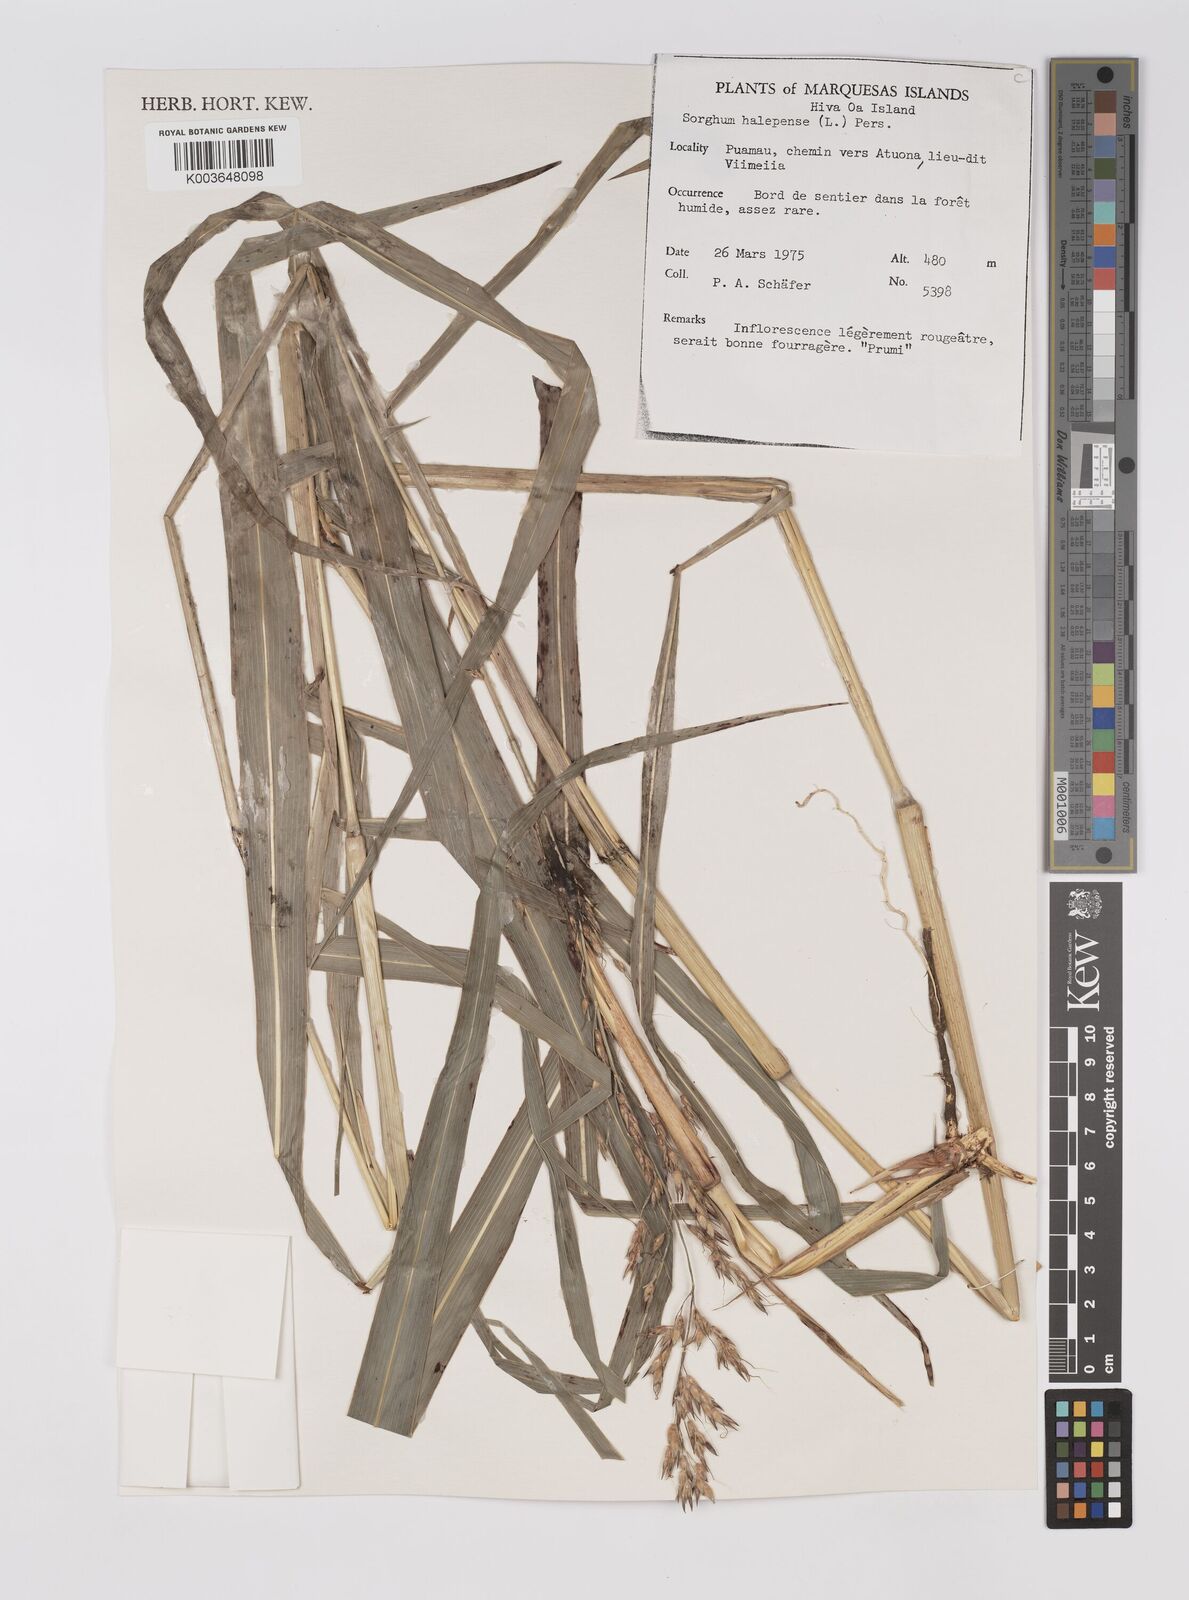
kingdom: Plantae
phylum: Tracheophyta
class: Liliopsida
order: Poales
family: Poaceae
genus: Sorghum
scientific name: Sorghum halepense
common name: Johnson-grass
